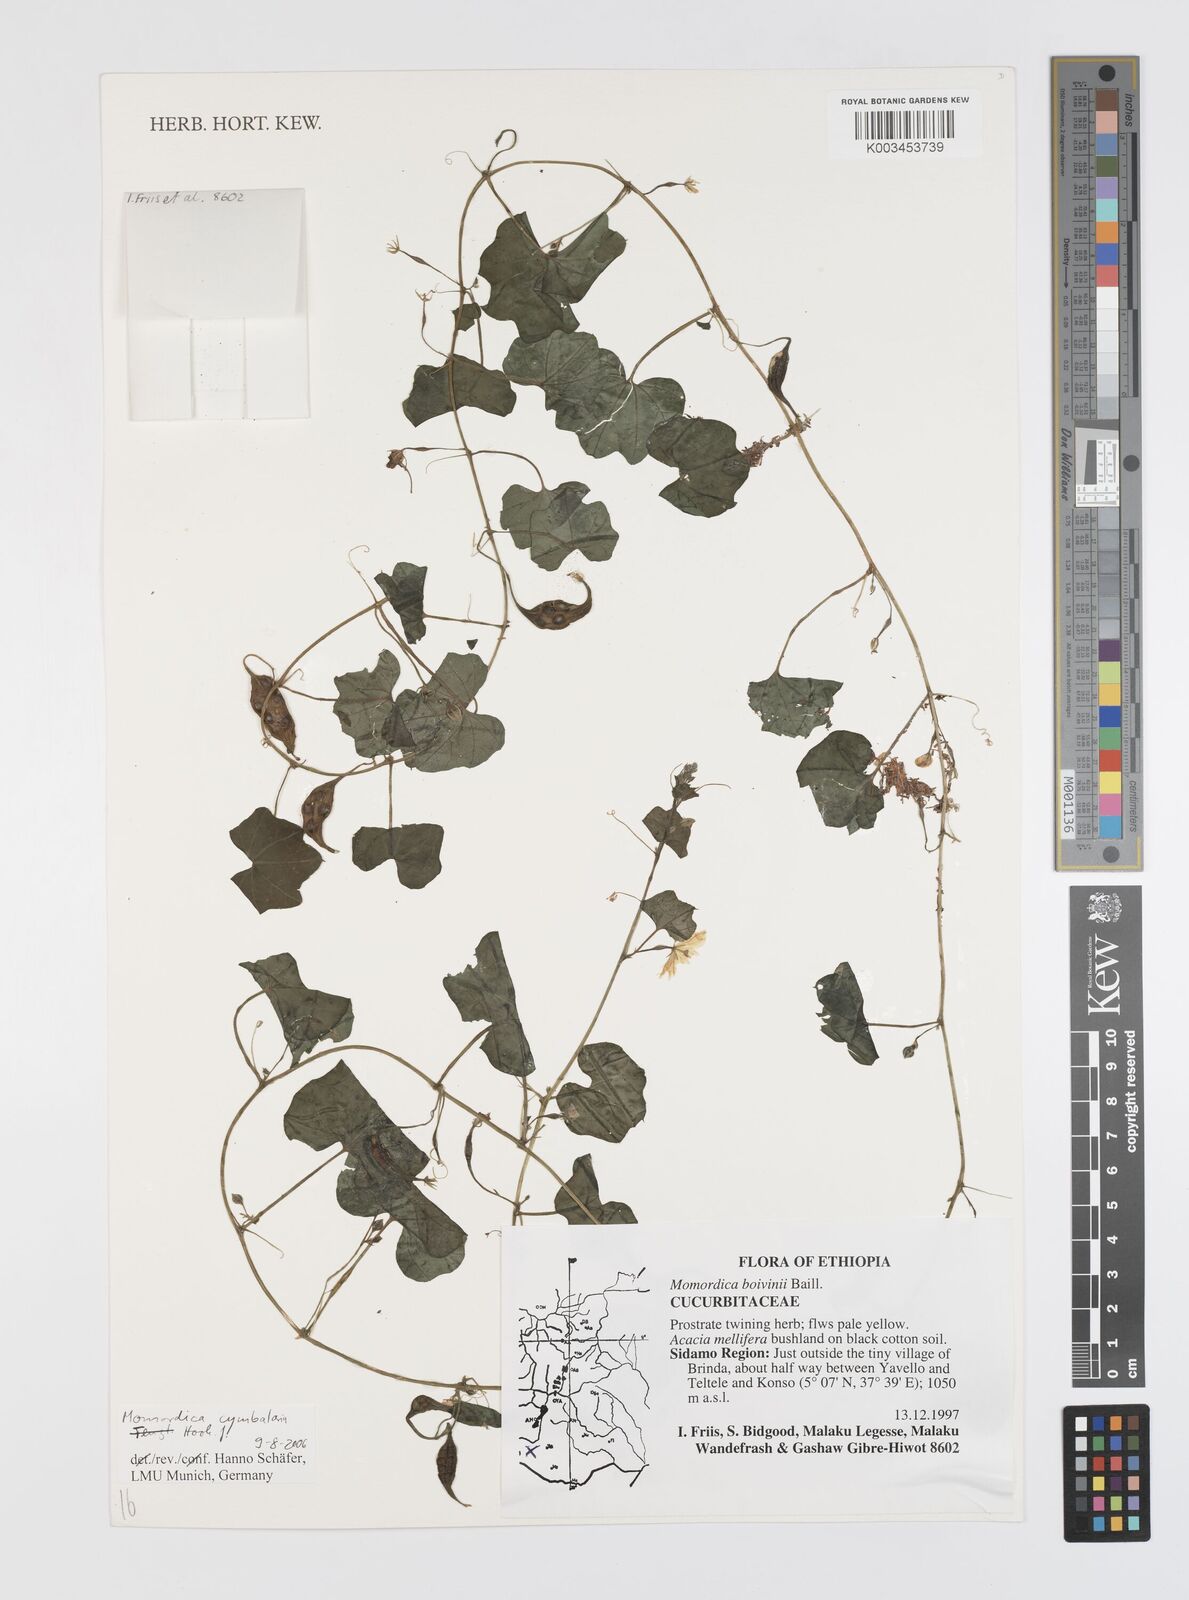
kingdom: Plantae
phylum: Tracheophyta
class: Magnoliopsida
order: Cucurbitales
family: Cucurbitaceae
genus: Momordica
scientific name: Momordica cymbalaria
